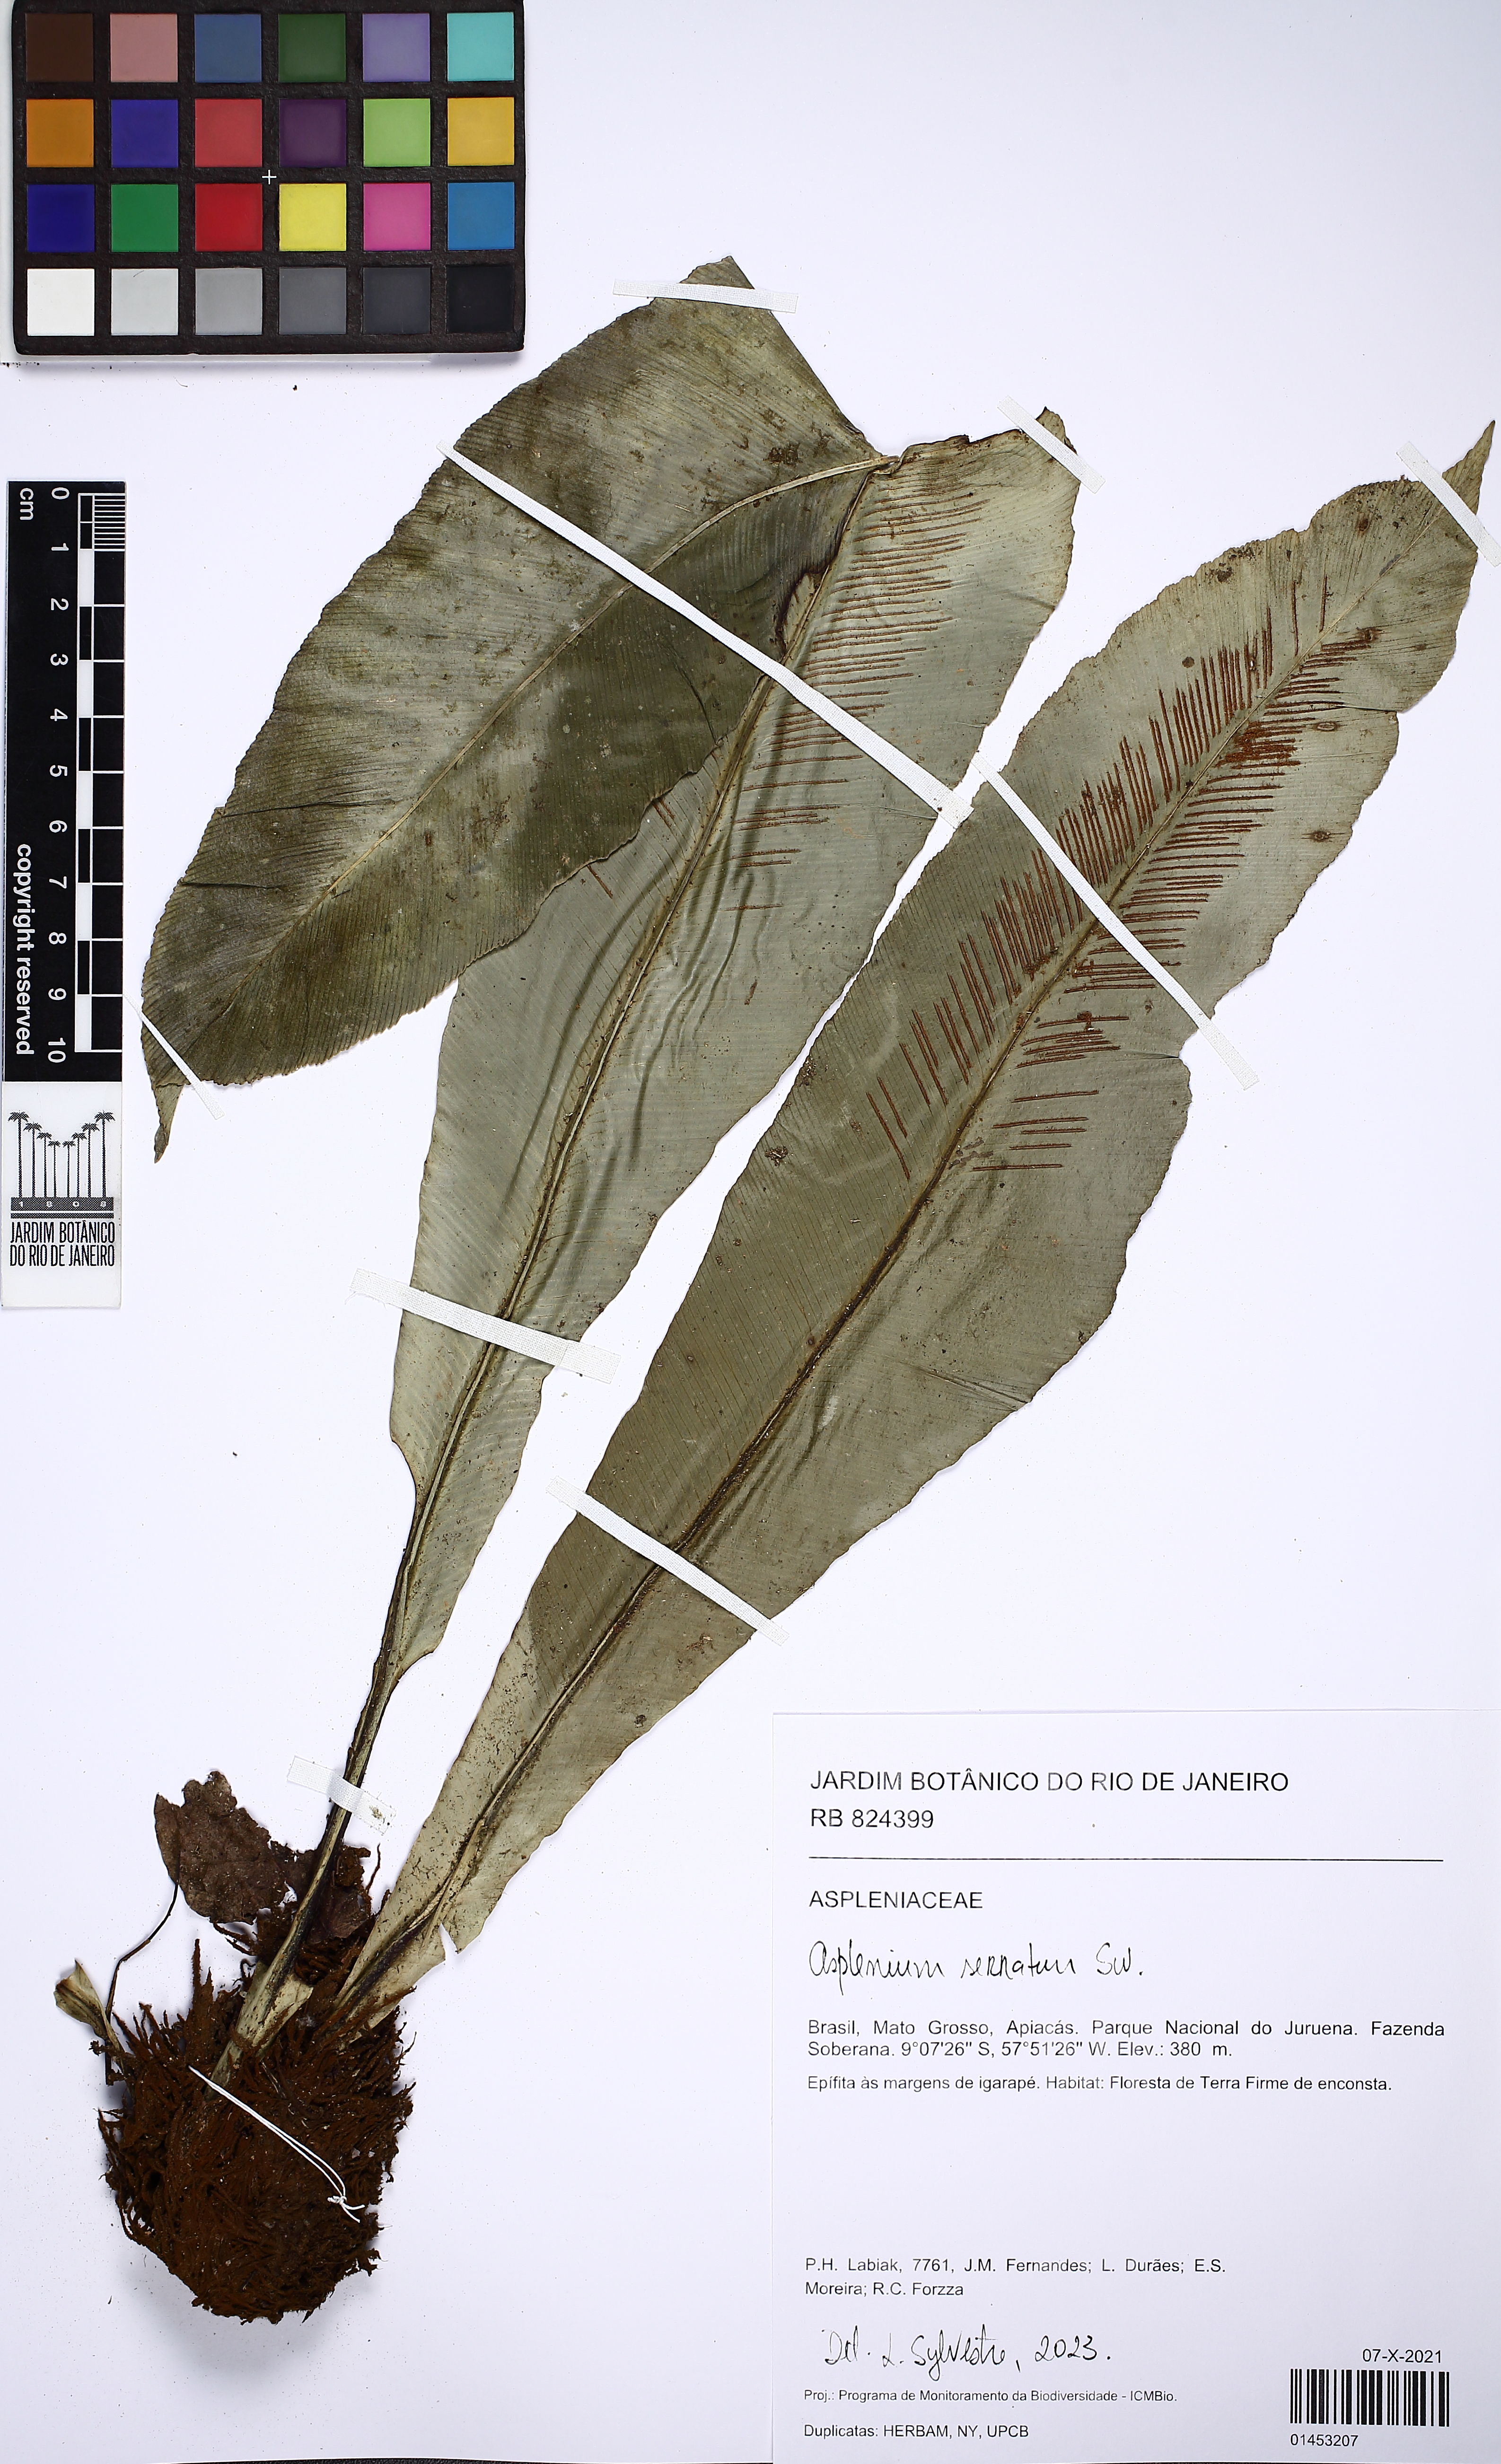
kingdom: Plantae
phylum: Tracheophyta
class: Polypodiopsida
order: Polypodiales
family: Aspleniaceae
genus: Asplenium
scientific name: Asplenium serratum
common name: Wild birdnest fern
